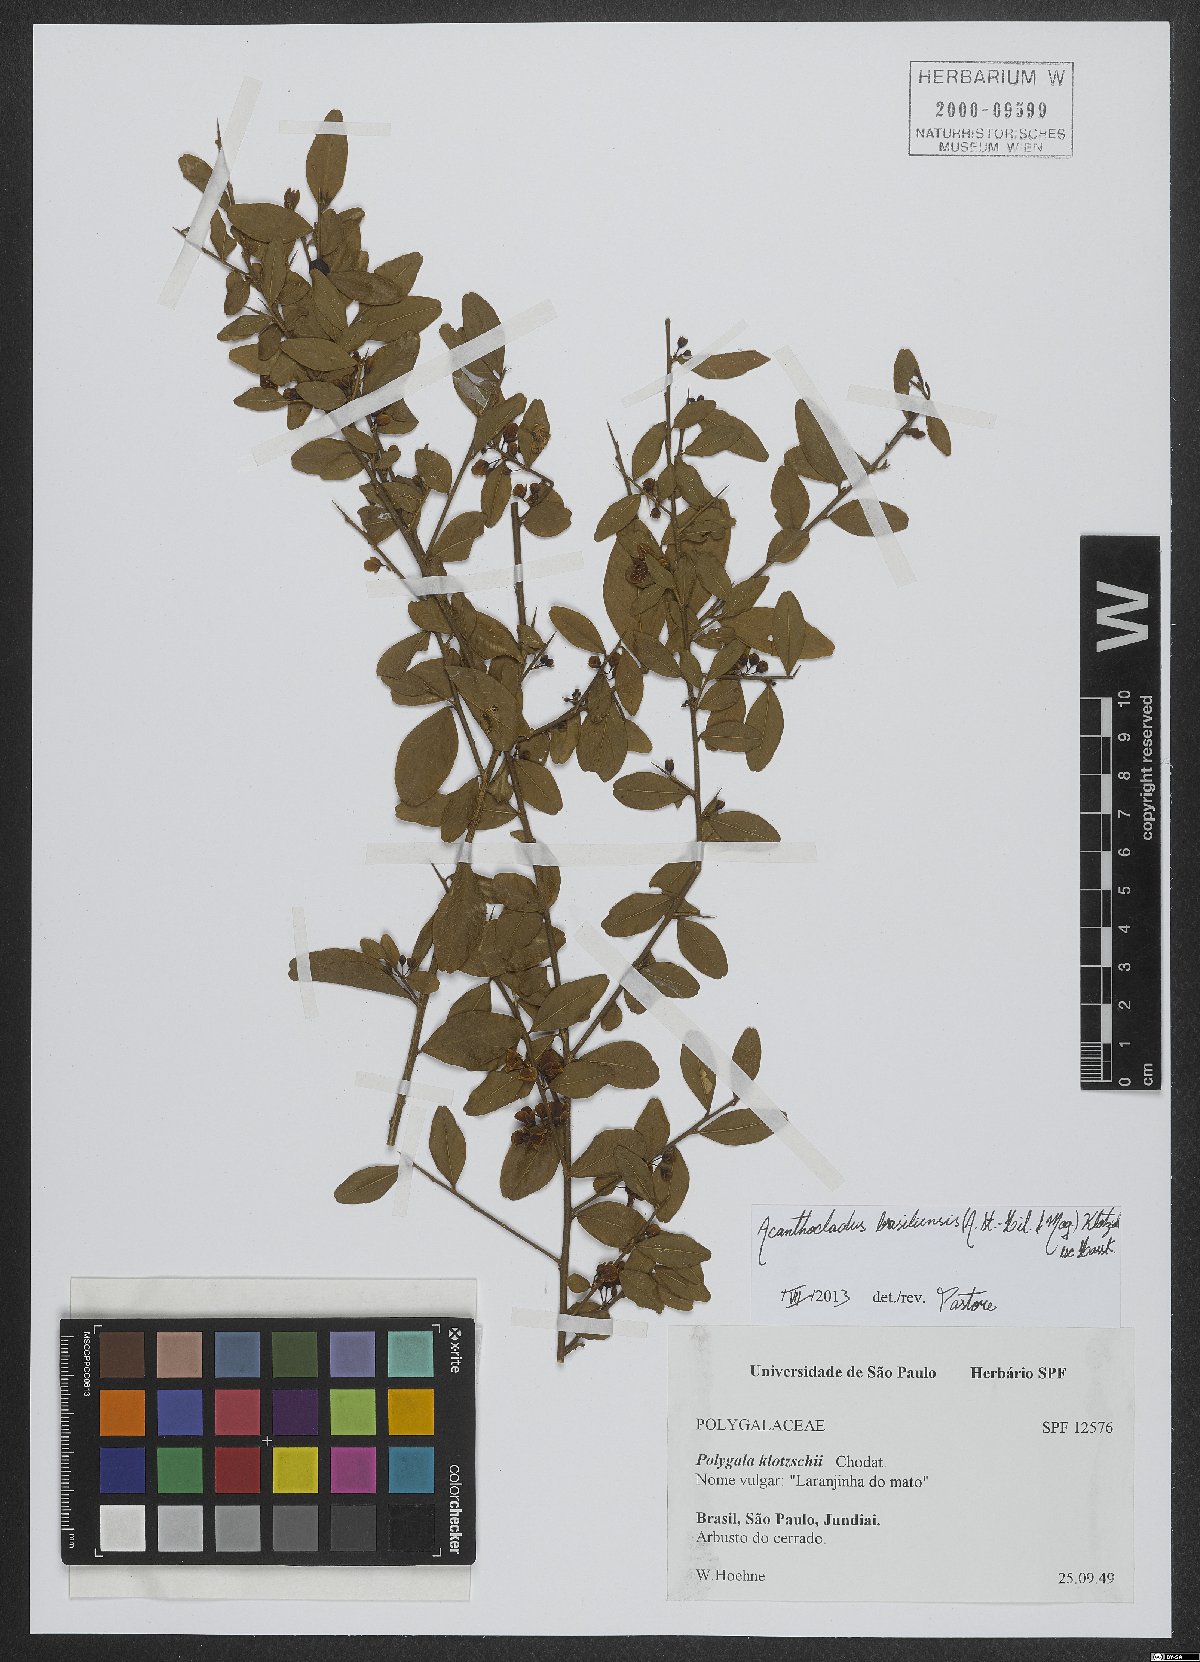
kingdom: Plantae
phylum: Tracheophyta
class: Magnoliopsida
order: Fabales
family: Polygalaceae
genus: Acanthocladus
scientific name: Acanthocladus brasiliensis
